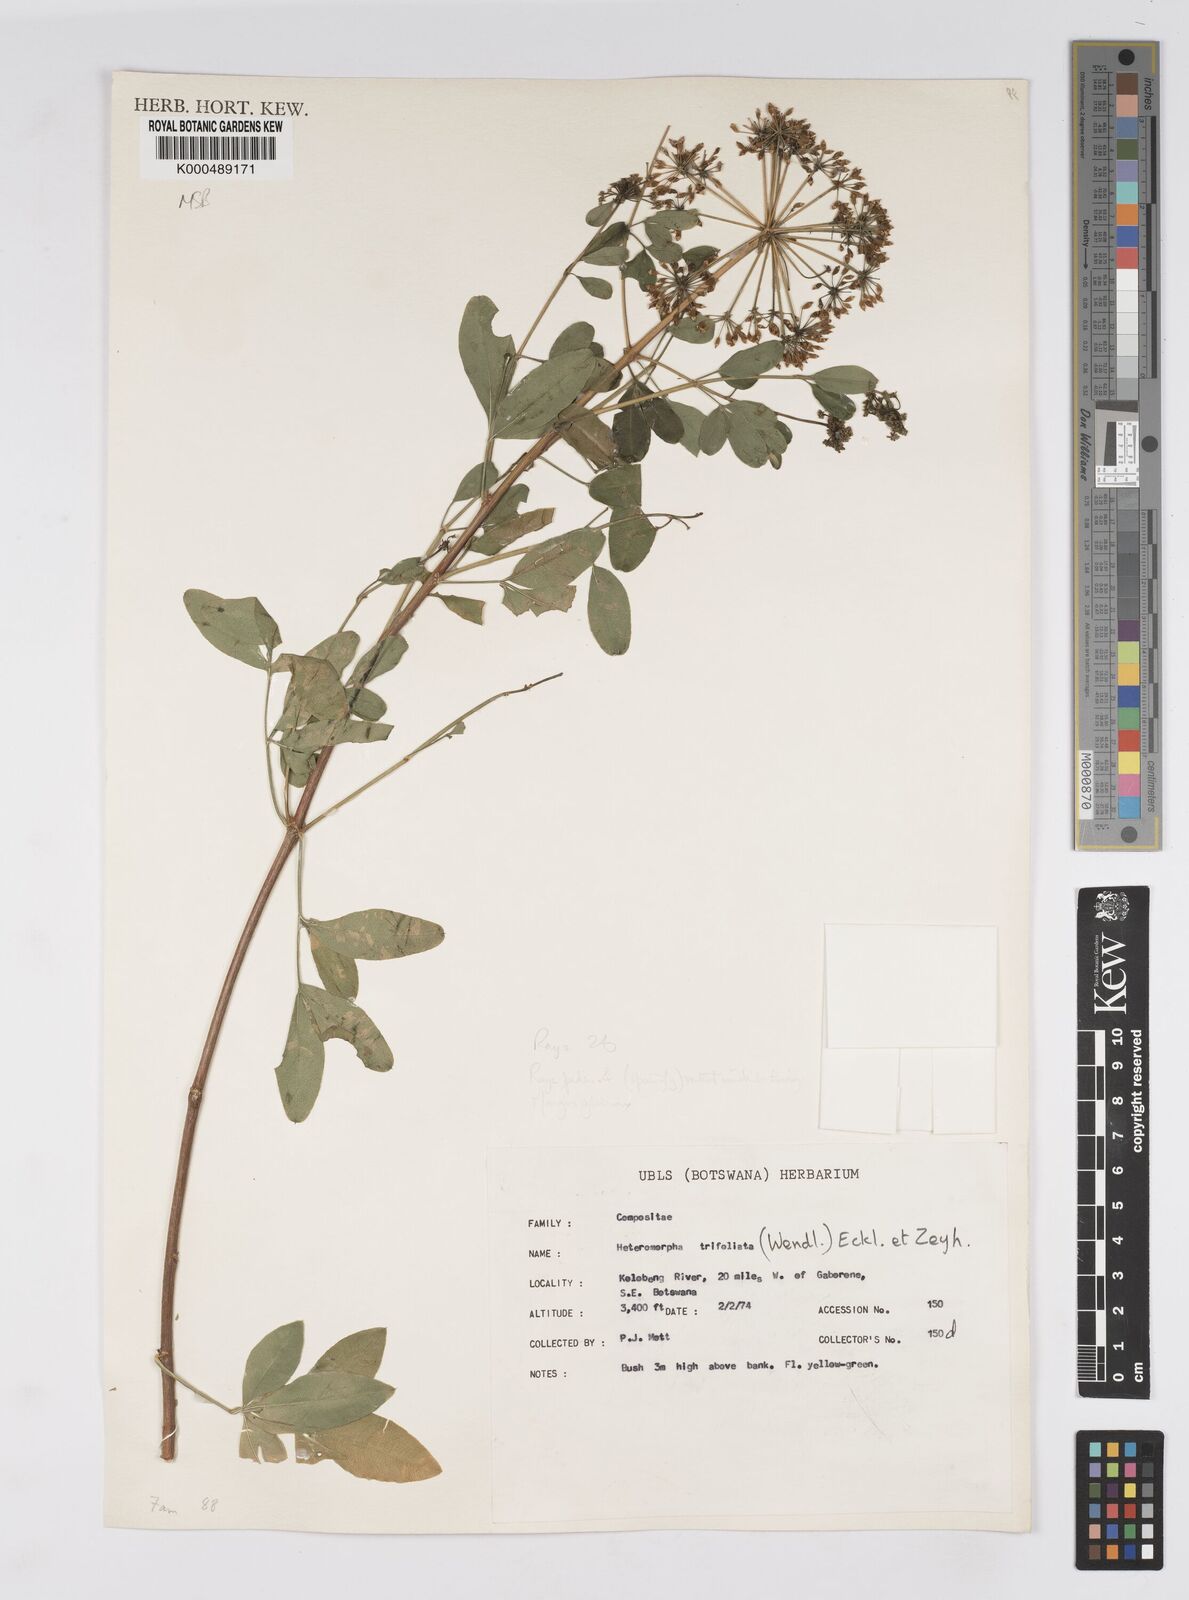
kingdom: Plantae
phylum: Tracheophyta
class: Magnoliopsida
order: Apiales
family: Apiaceae
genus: Heteromorpha
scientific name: Heteromorpha arborescens
